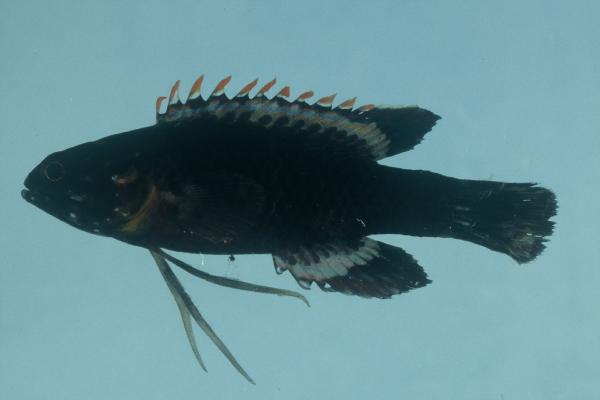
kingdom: Animalia
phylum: Chordata
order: Perciformes
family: Plesiopidae
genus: Plesiops
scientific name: Plesiops coeruleolineatus
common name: Crimsontip longfin
